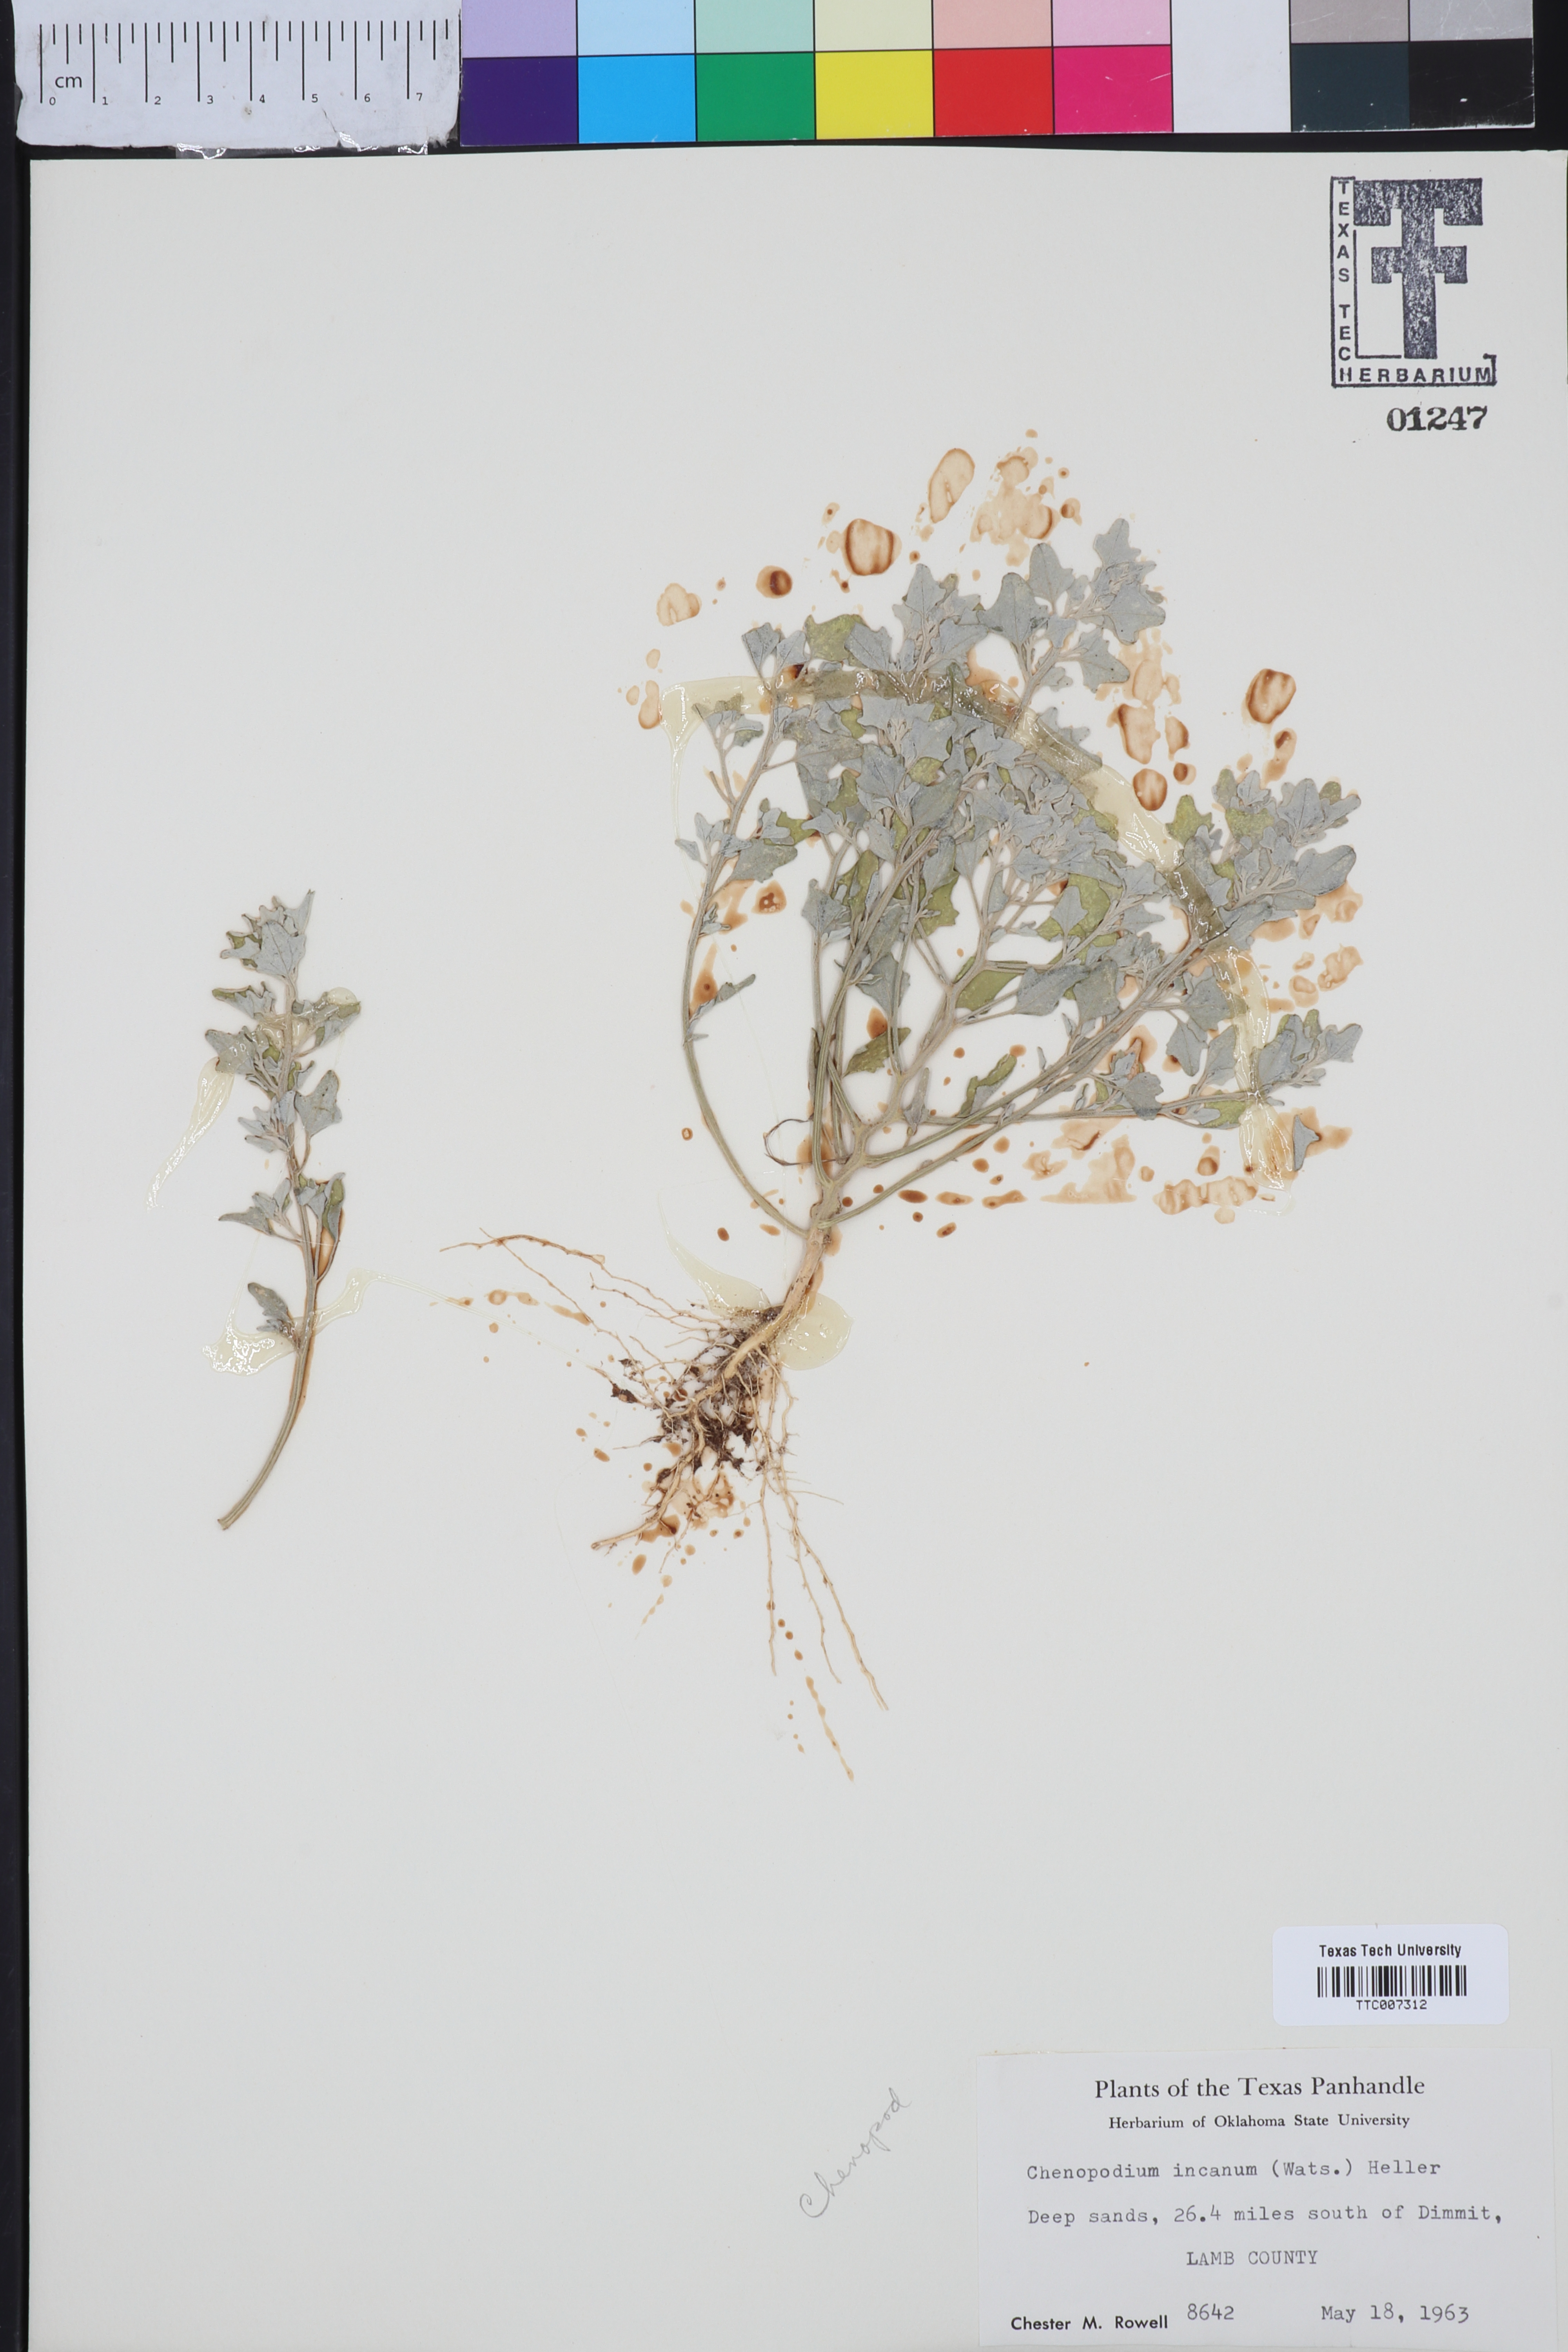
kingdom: Plantae
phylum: Tracheophyta
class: Magnoliopsida
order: Caryophyllales
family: Amaranthaceae
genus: Chenopodium
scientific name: Chenopodium incanum
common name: Hoary goosefoot
